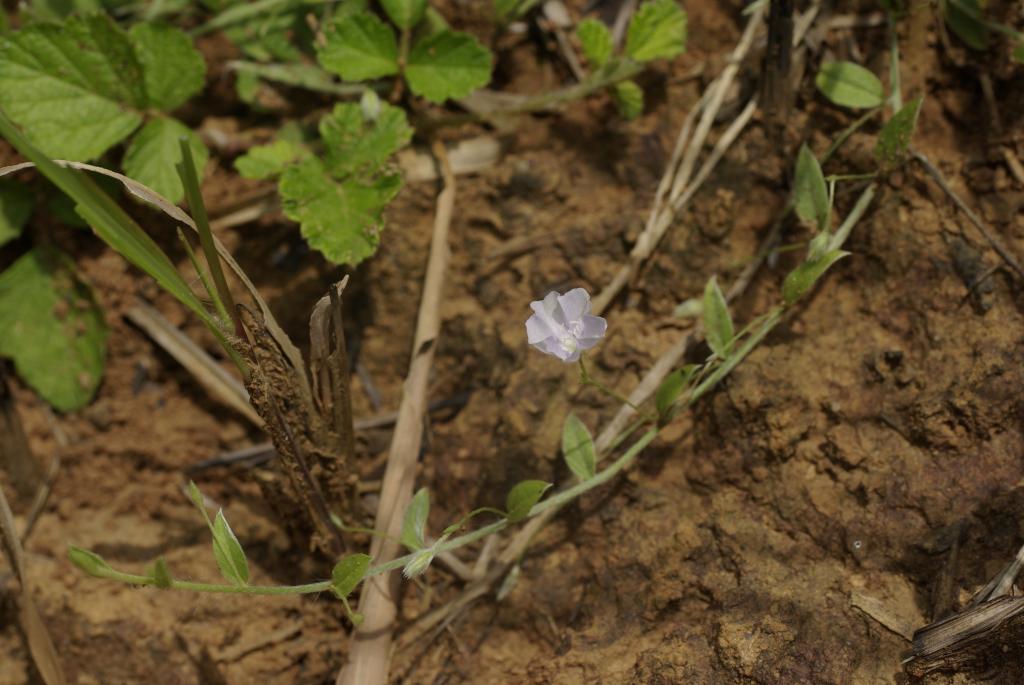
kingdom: Plantae
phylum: Tracheophyta
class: Magnoliopsida
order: Solanales
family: Convolvulaceae
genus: Evolvulus
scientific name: Evolvulus alsinoides
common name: Slender dwarf morning-glory
